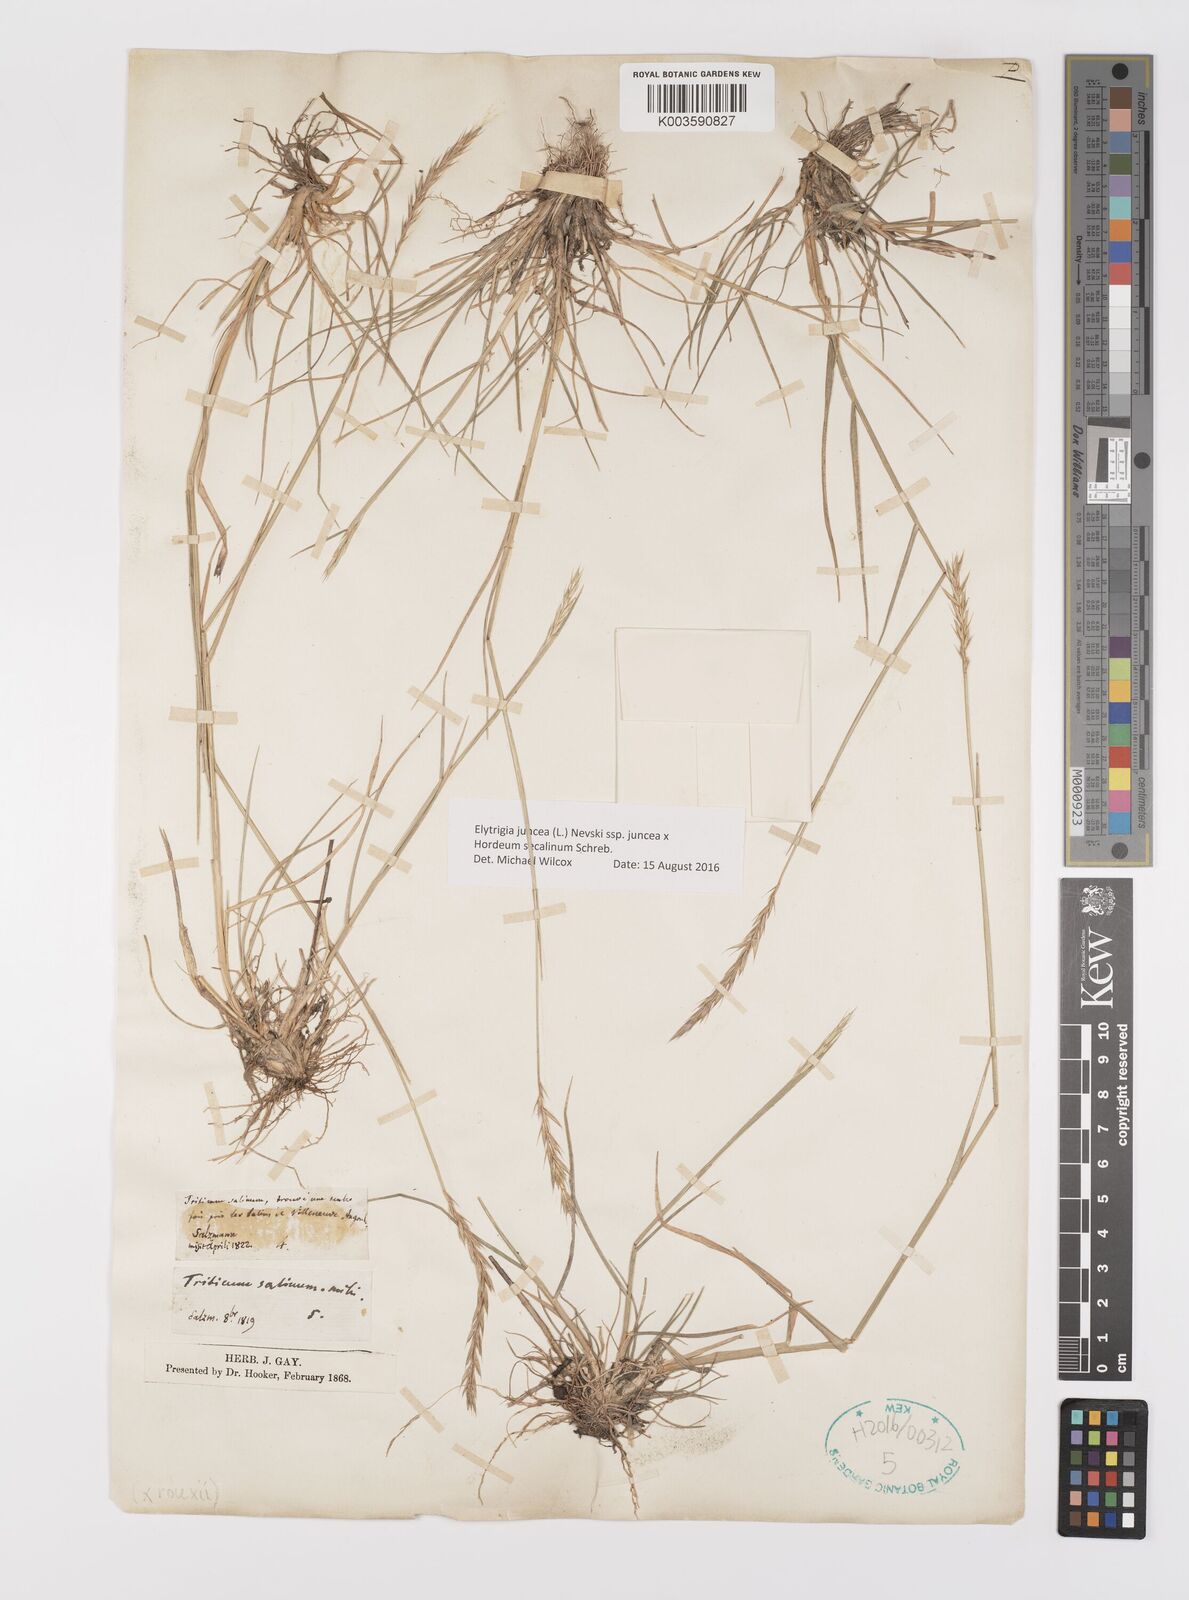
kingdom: Plantae
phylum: Tracheophyta
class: Liliopsida
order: Poales
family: Poaceae
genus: Elyhordeum
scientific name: Elyhordeum rouxii
